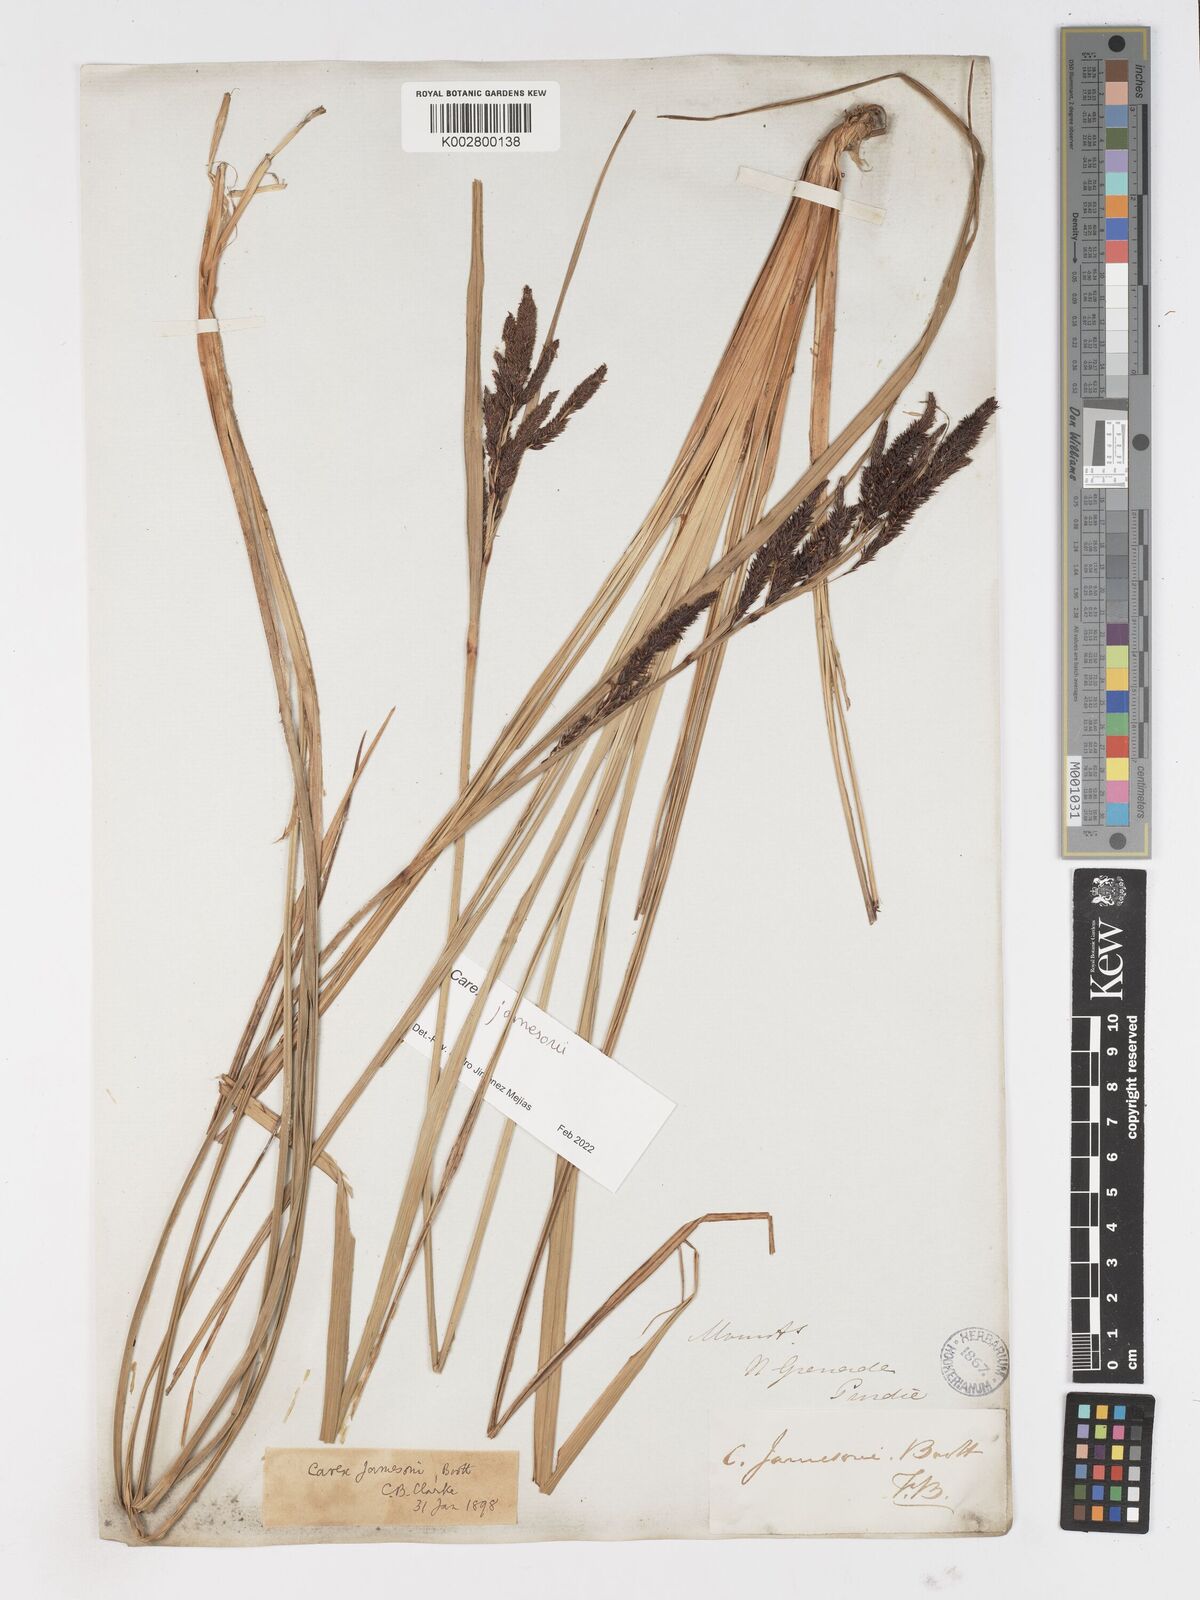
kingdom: Plantae
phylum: Tracheophyta
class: Liliopsida
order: Poales
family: Cyperaceae
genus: Carex
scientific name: Carex jamesonii
